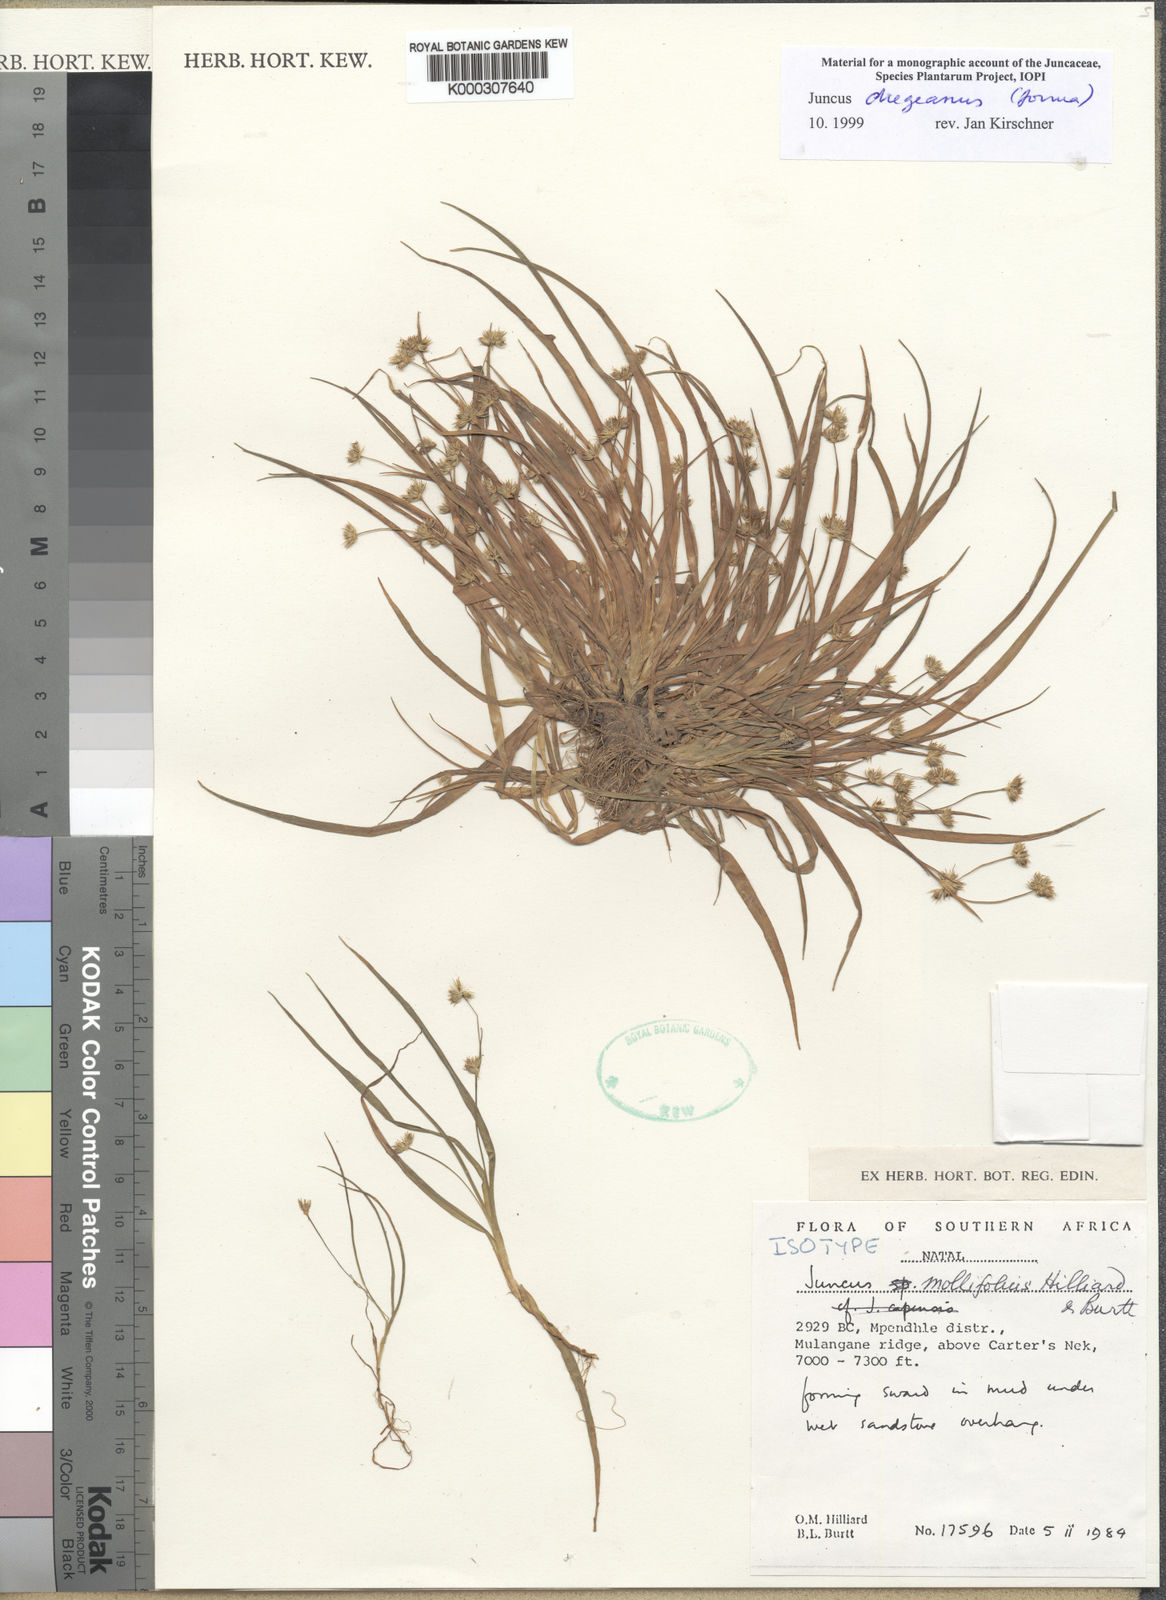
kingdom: Plantae
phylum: Tracheophyta
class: Liliopsida
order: Poales
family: Juncaceae
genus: Juncus
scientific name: Juncus dregeanus
